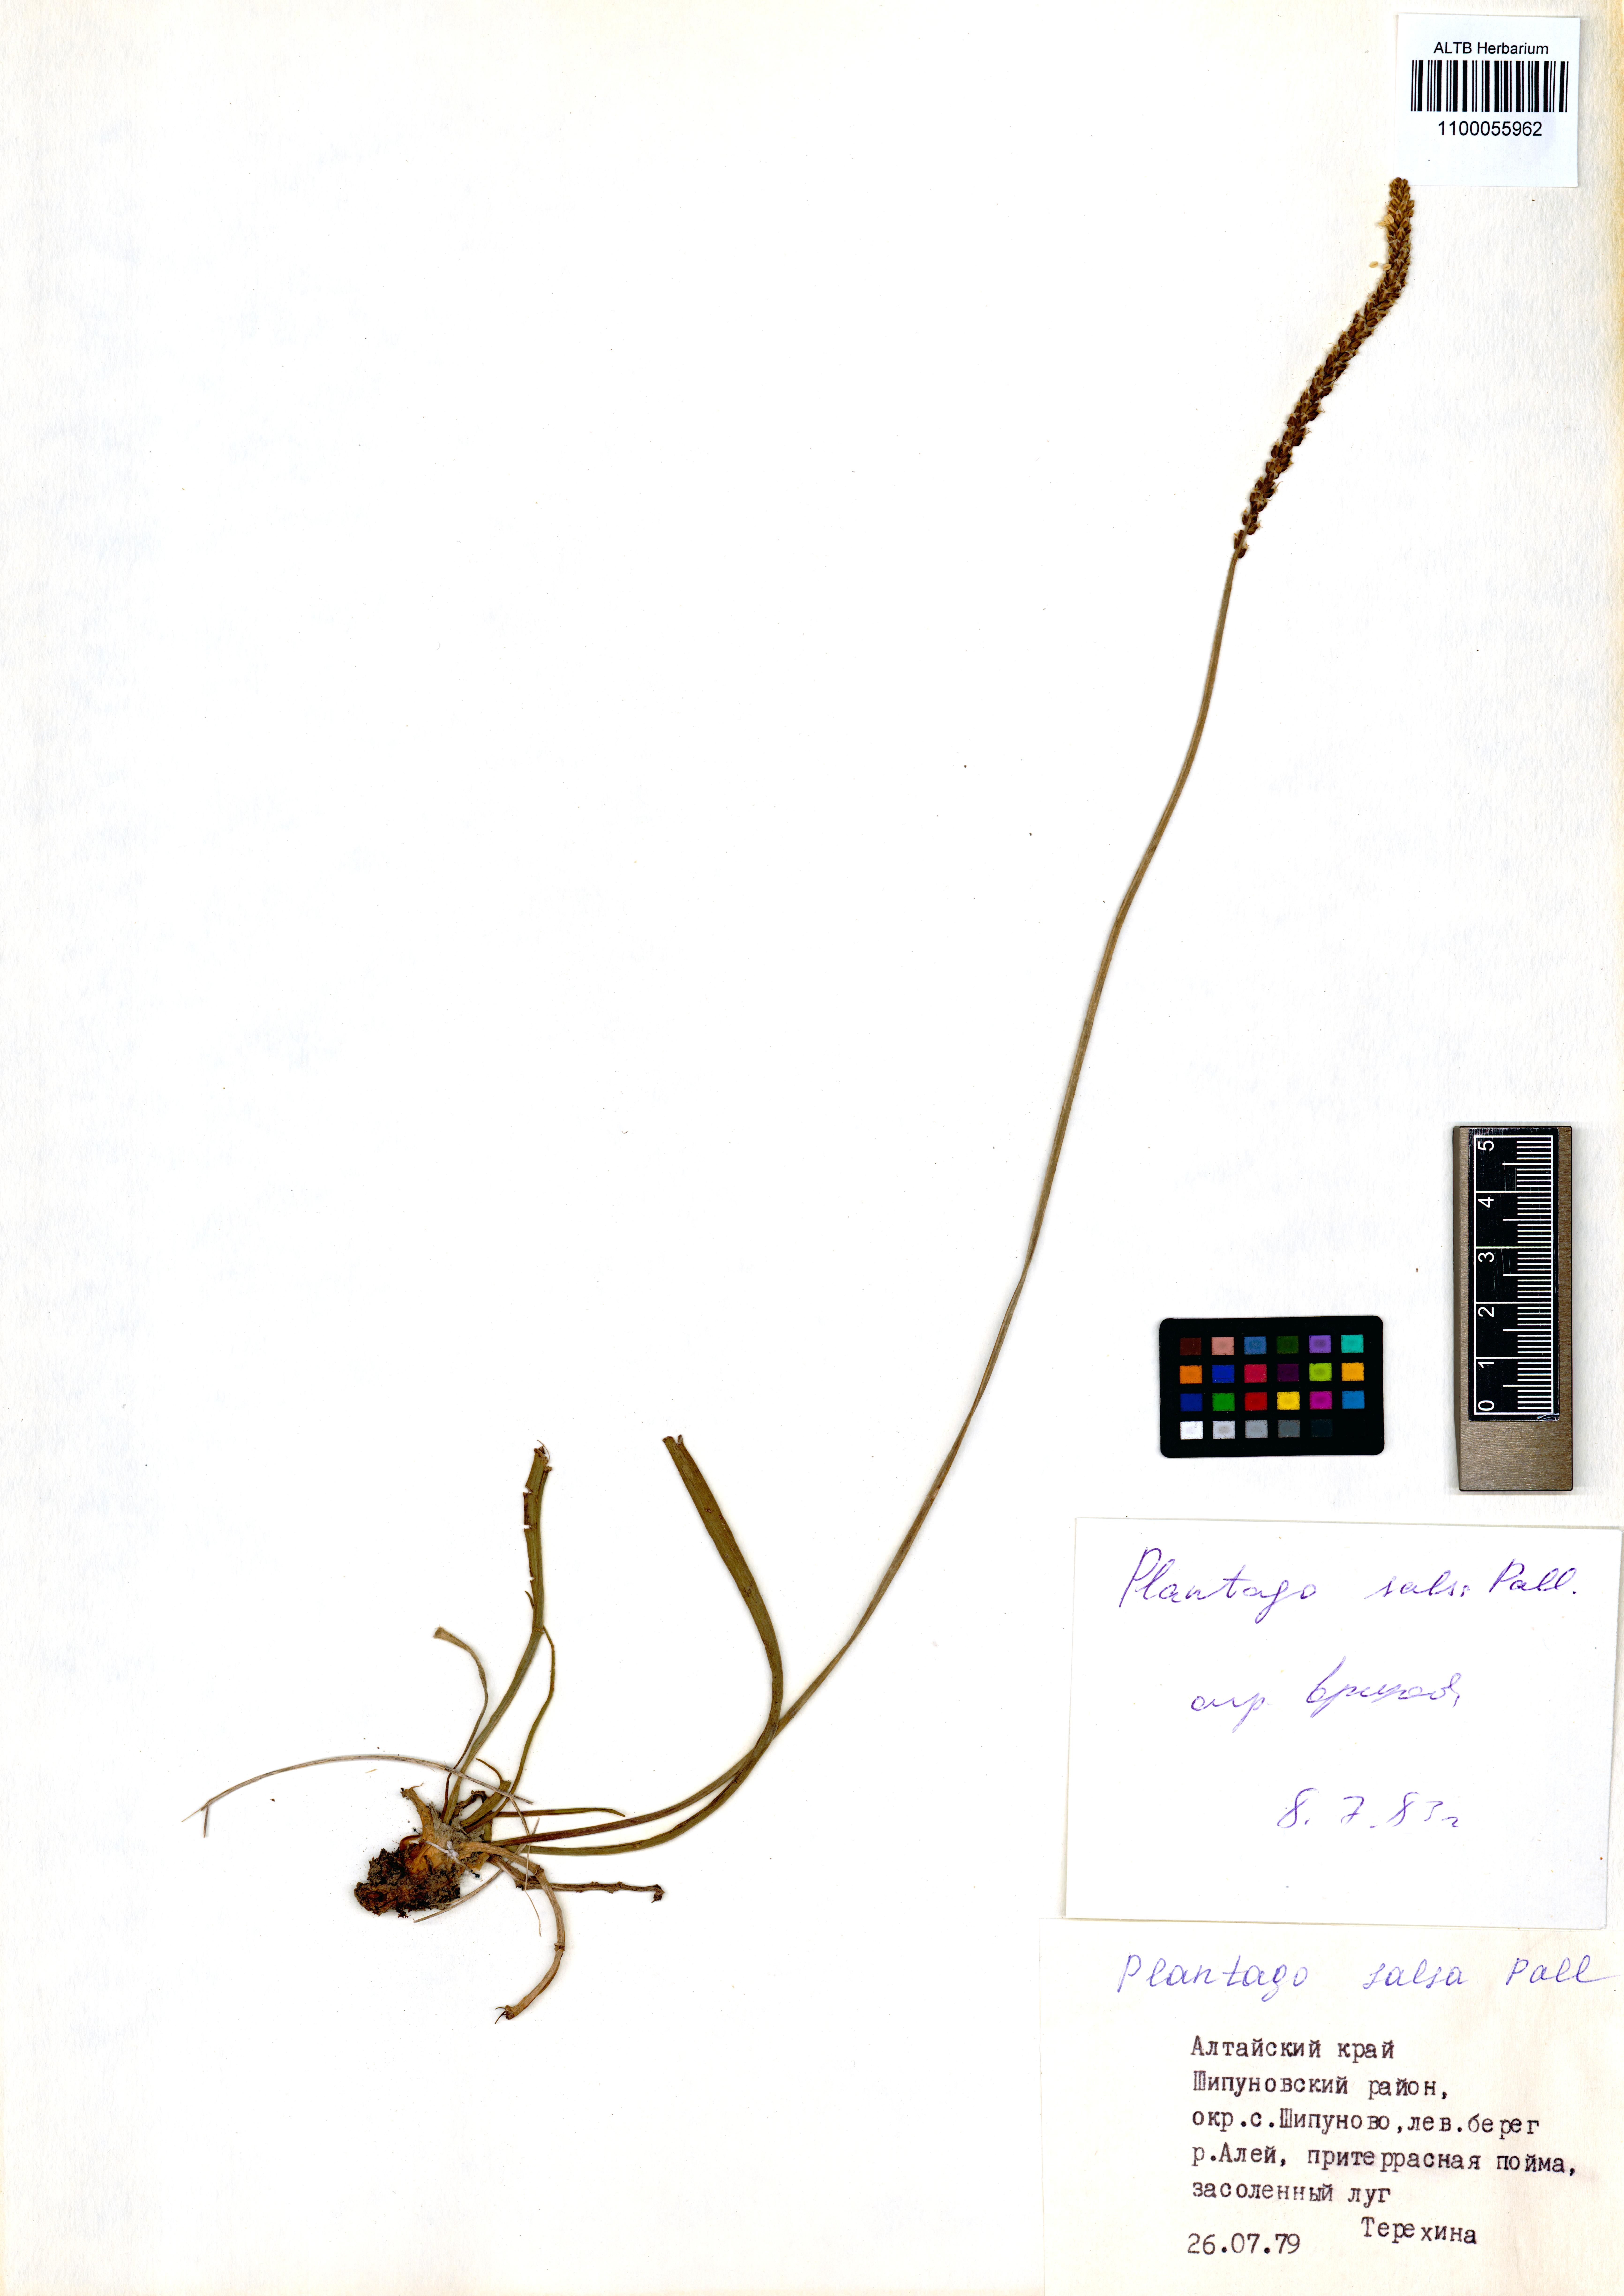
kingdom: Plantae
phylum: Tracheophyta
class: Magnoliopsida
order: Lamiales
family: Plantaginaceae
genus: Plantago
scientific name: Plantago salsa
